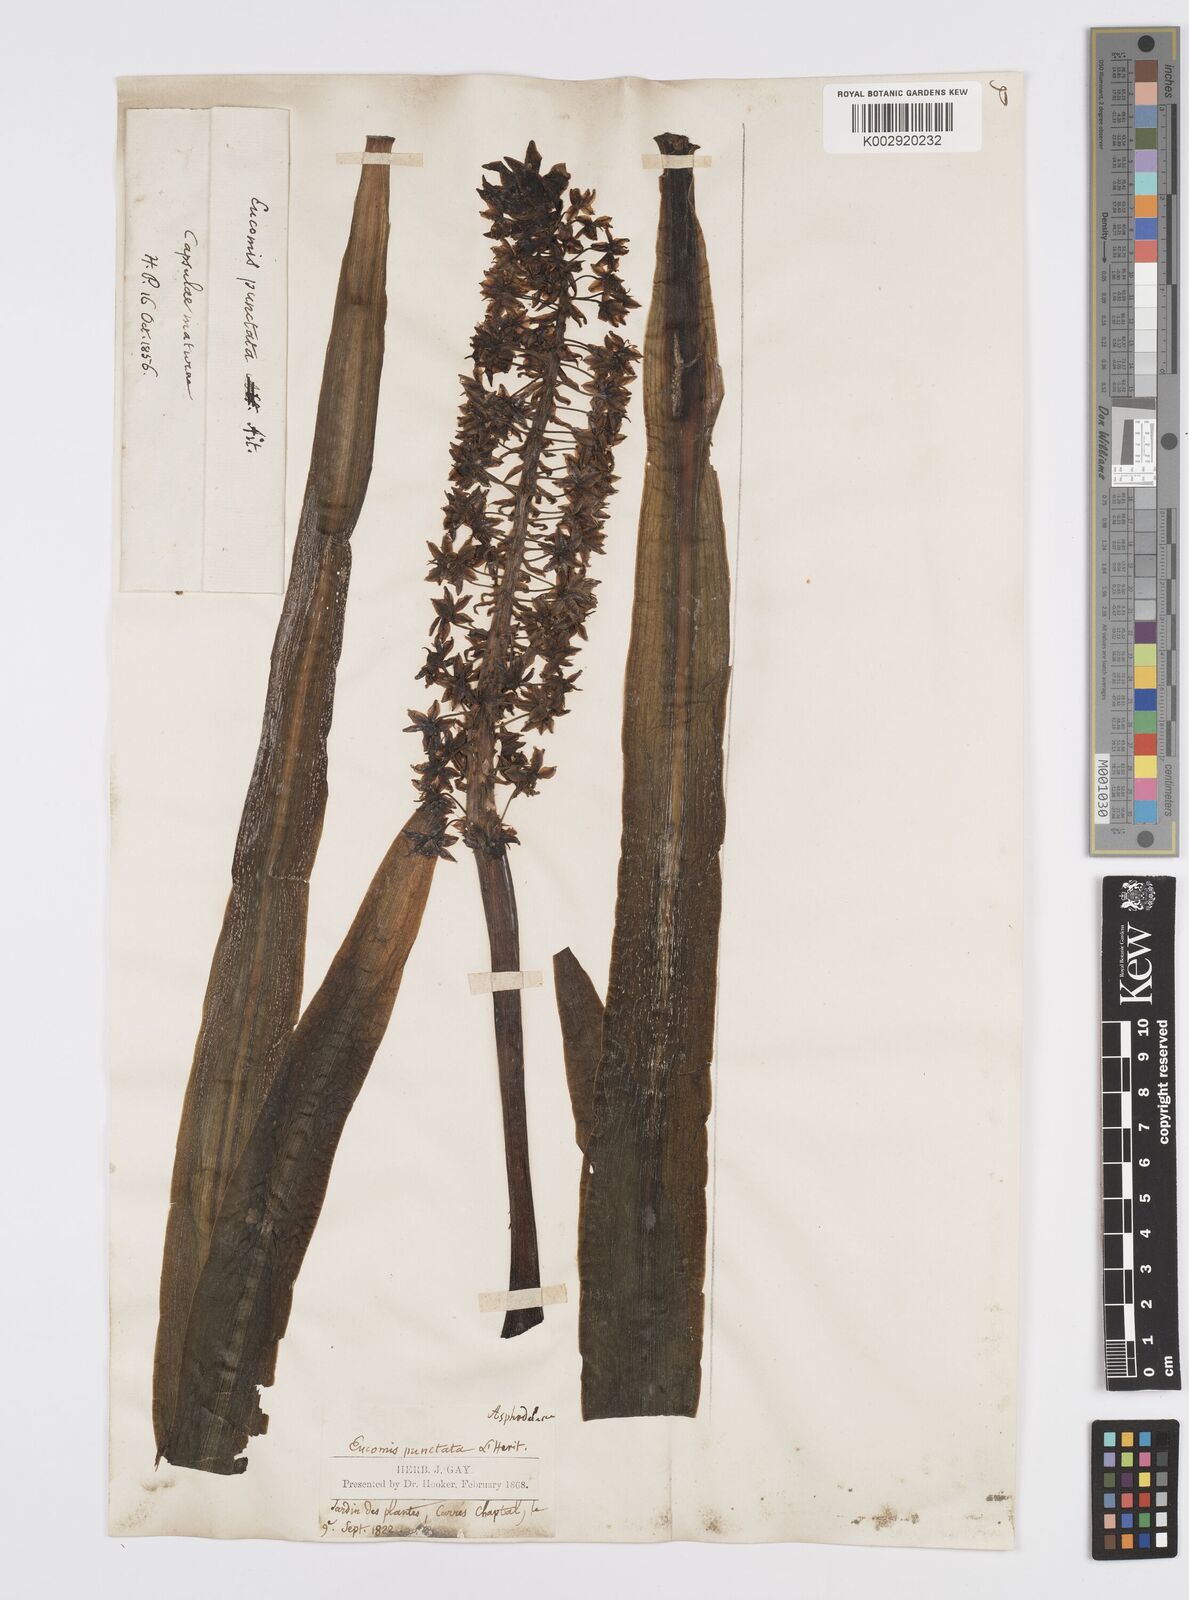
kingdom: Plantae
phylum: Tracheophyta
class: Liliopsida
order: Asparagales
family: Asparagaceae
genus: Eucomis
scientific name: Eucomis comosa
